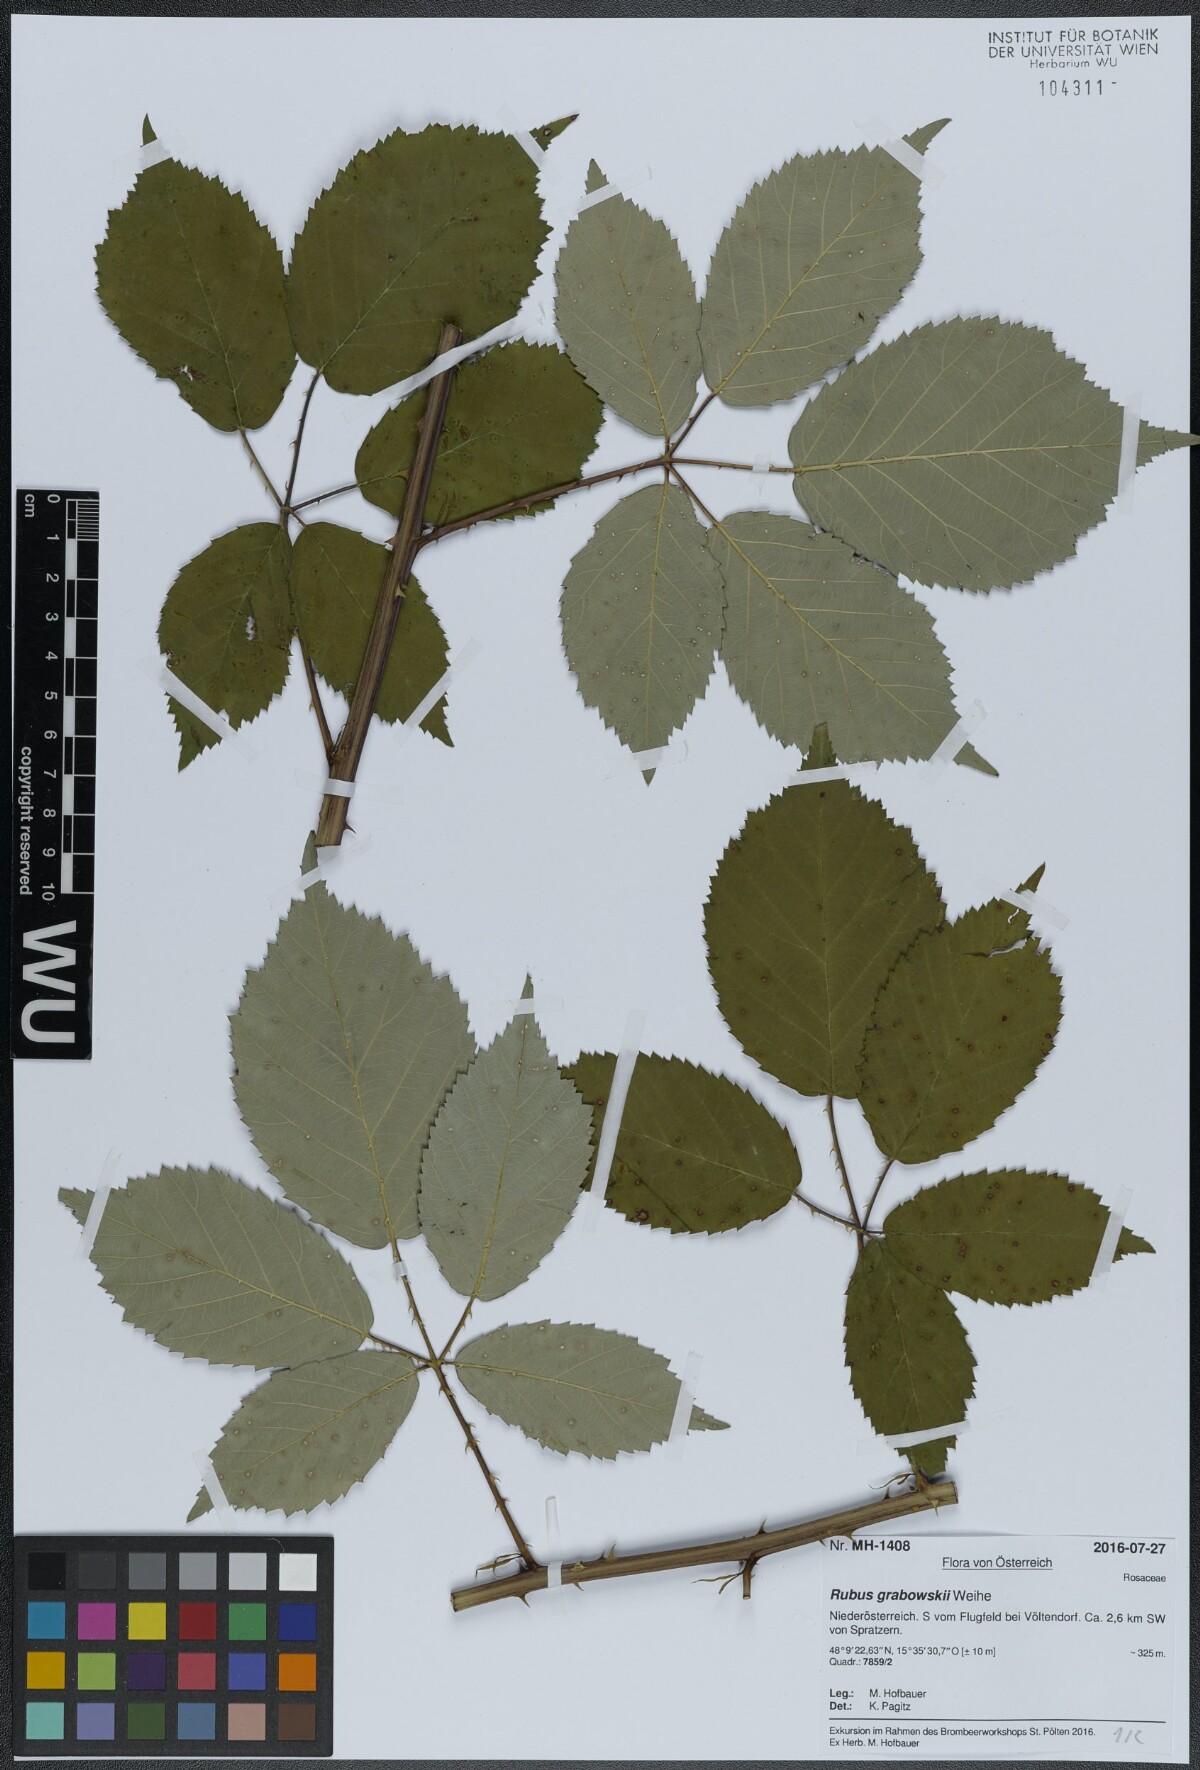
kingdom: Plantae
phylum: Tracheophyta
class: Magnoliopsida
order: Rosales
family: Rosaceae
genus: Rubus
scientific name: Rubus grabowskii
